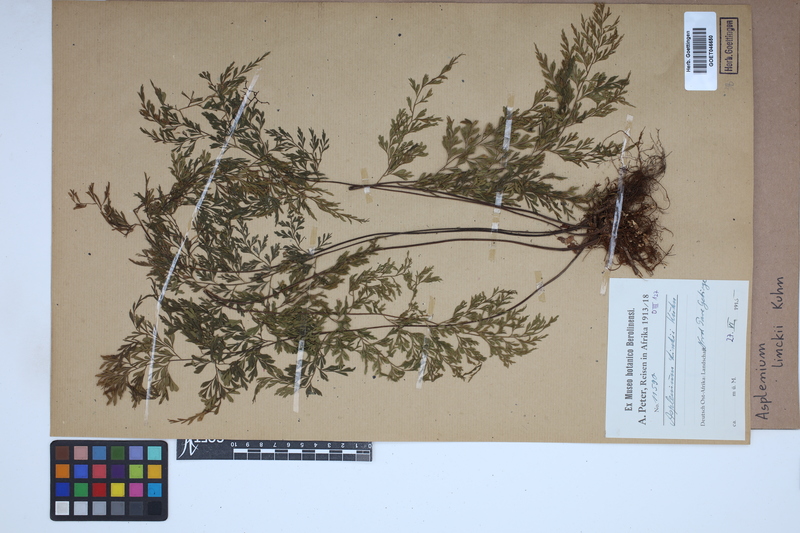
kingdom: Plantae
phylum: Tracheophyta
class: Polypodiopsida
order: Polypodiales
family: Aspleniaceae
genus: Asplenium
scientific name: Asplenium linckii
